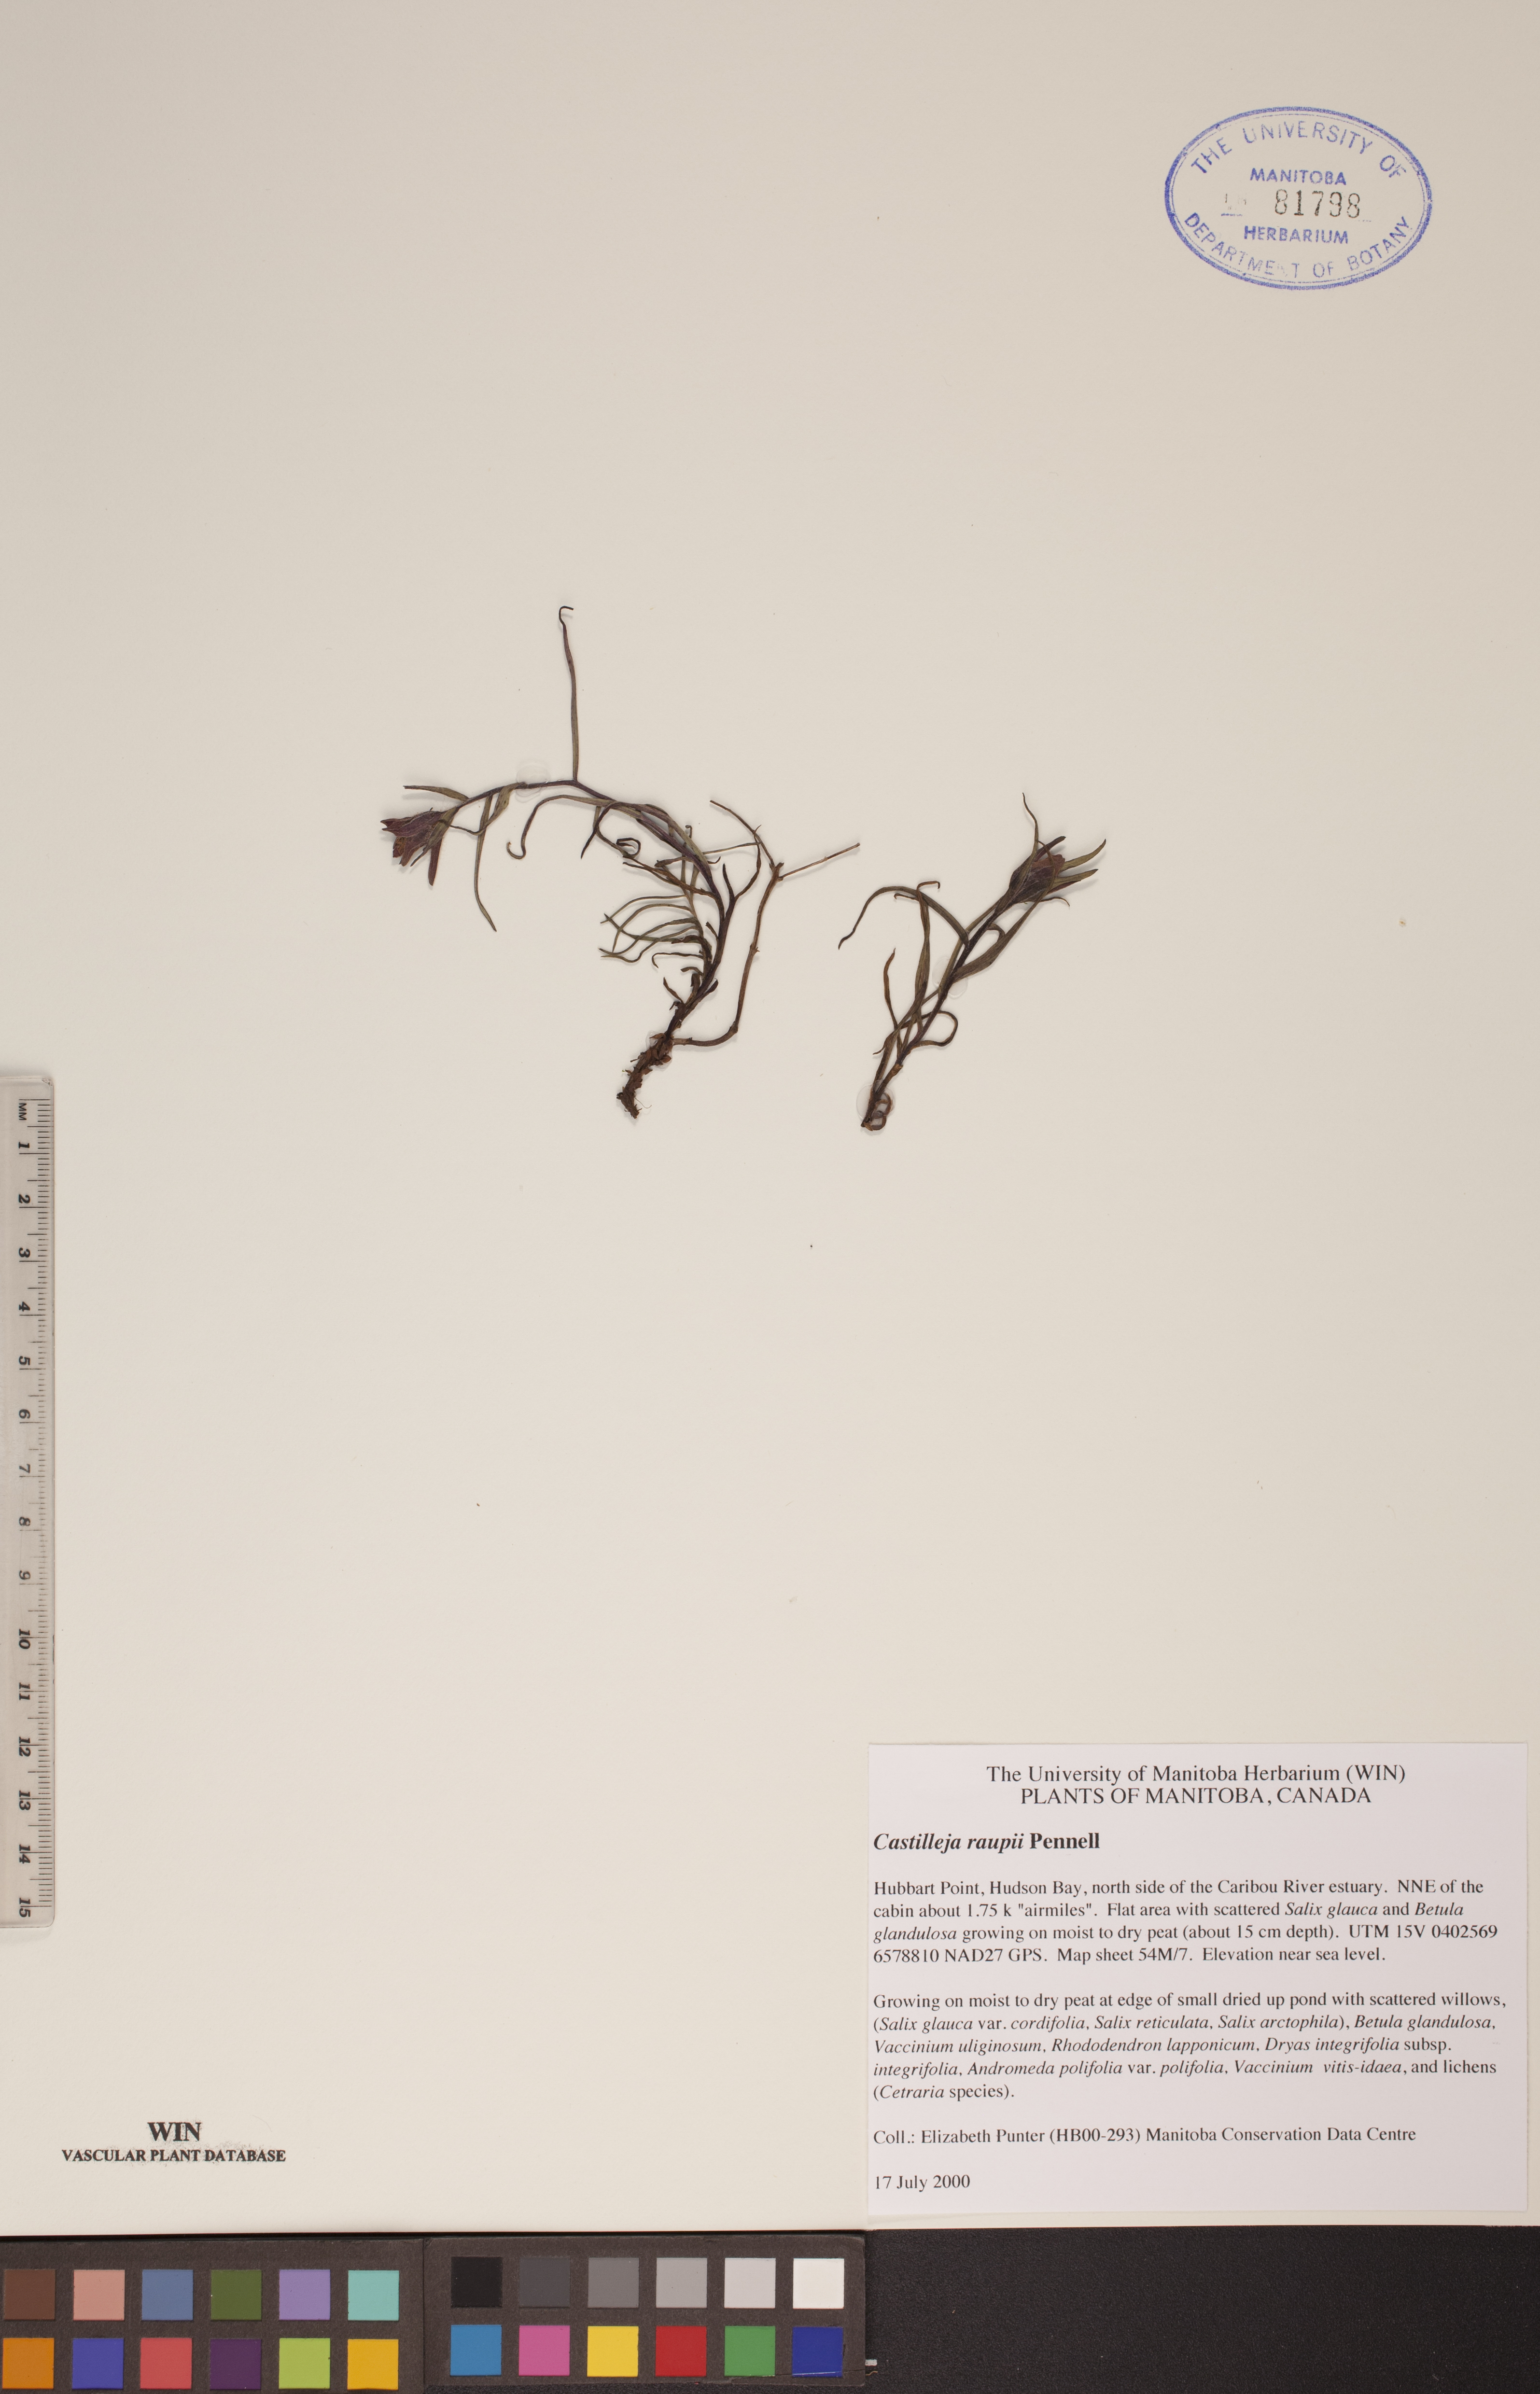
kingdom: Plantae
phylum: Tracheophyta
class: Magnoliopsida
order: Lamiales
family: Orobanchaceae
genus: Castilleja
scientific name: Castilleja raupii
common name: Raup's paintbrush
